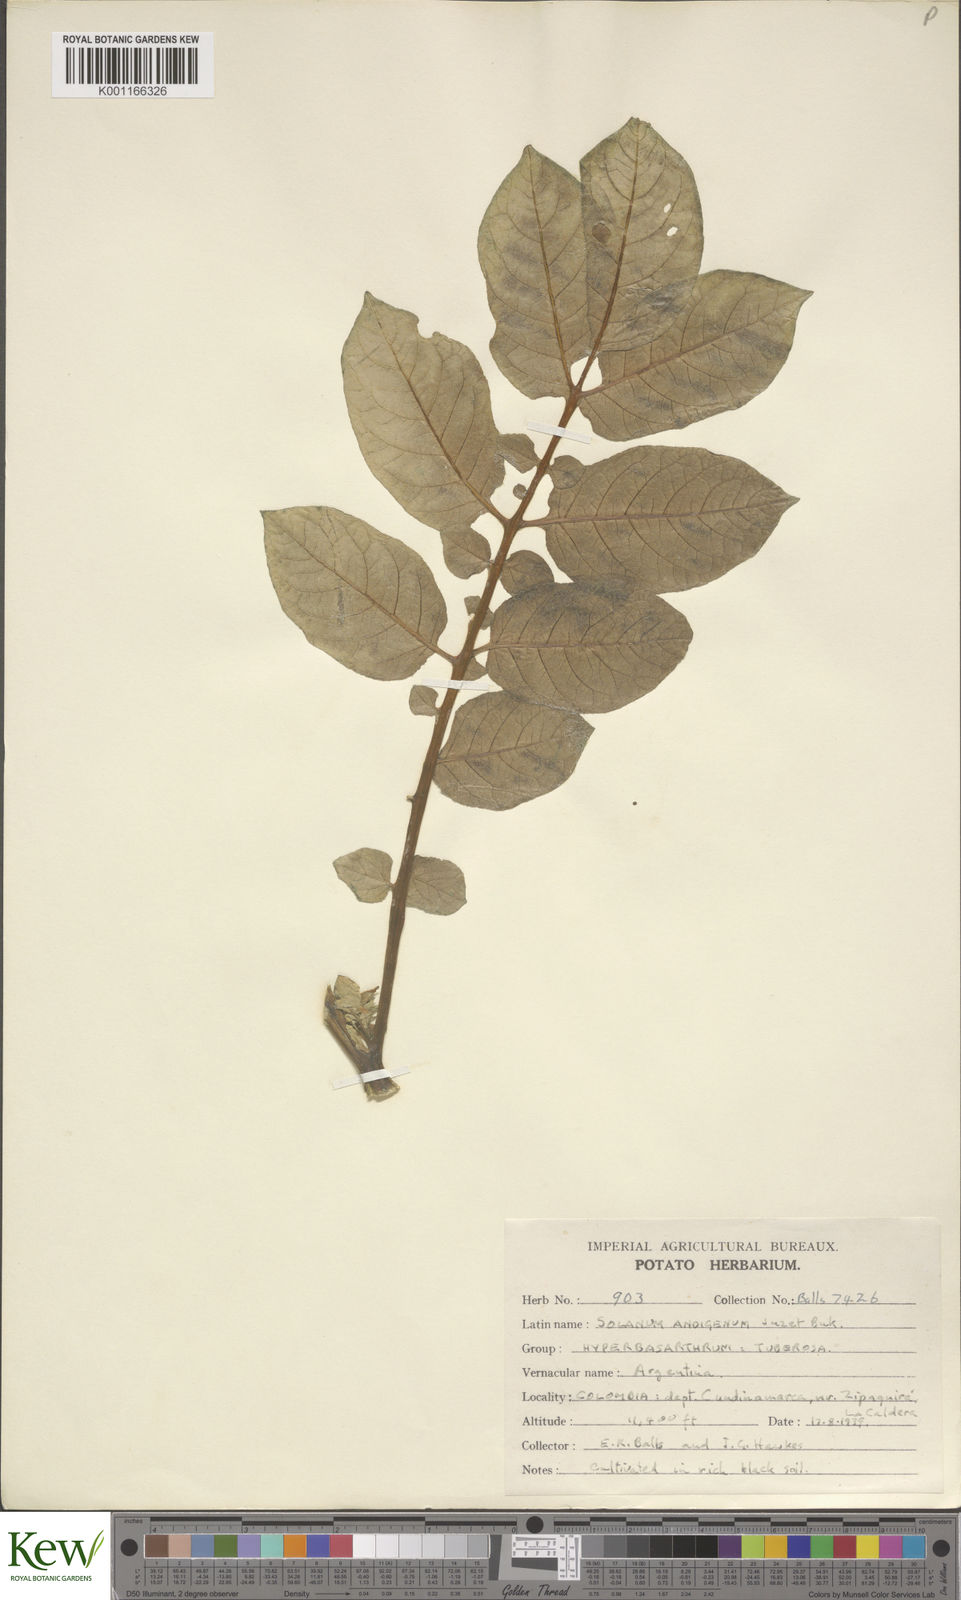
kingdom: Plantae
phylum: Tracheophyta
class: Magnoliopsida
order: Solanales
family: Solanaceae
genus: Solanum
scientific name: Solanum tuberosum
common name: Potato
